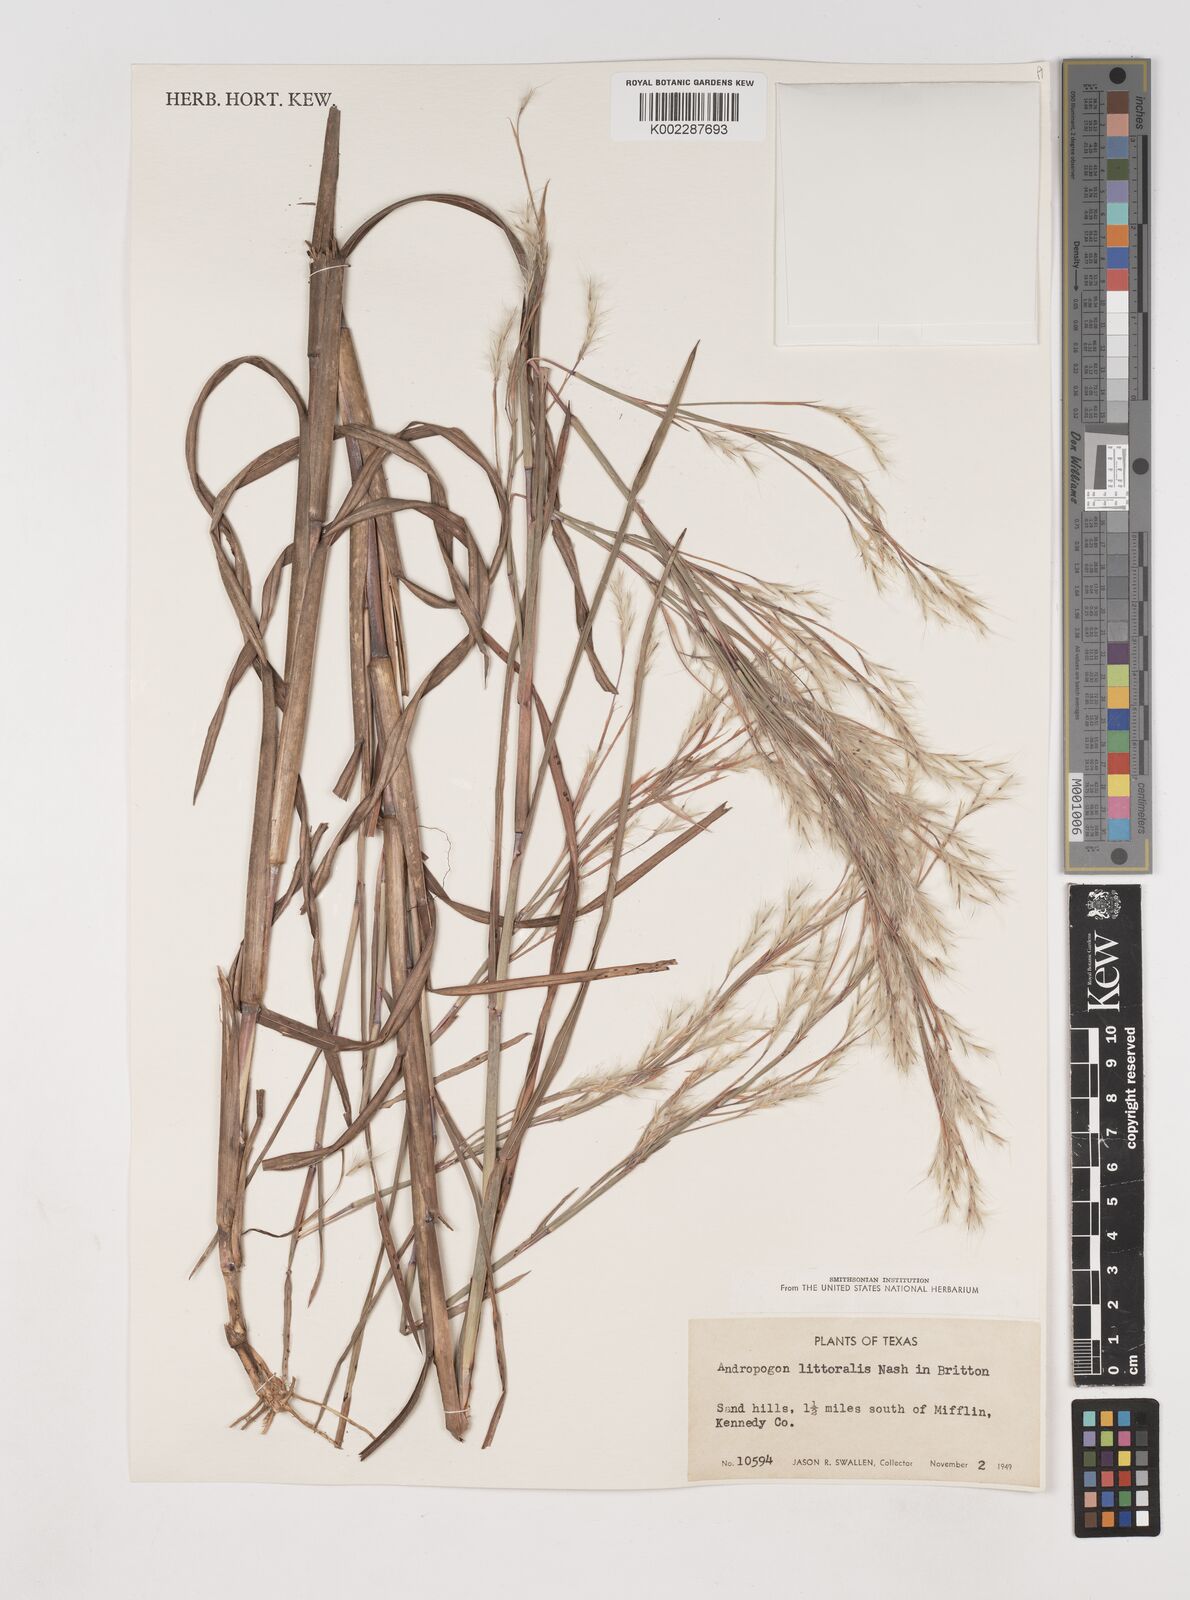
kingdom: Plantae
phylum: Tracheophyta
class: Liliopsida
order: Poales
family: Poaceae
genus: Schizachyrium
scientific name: Schizachyrium scoparium
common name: Little bluestem
